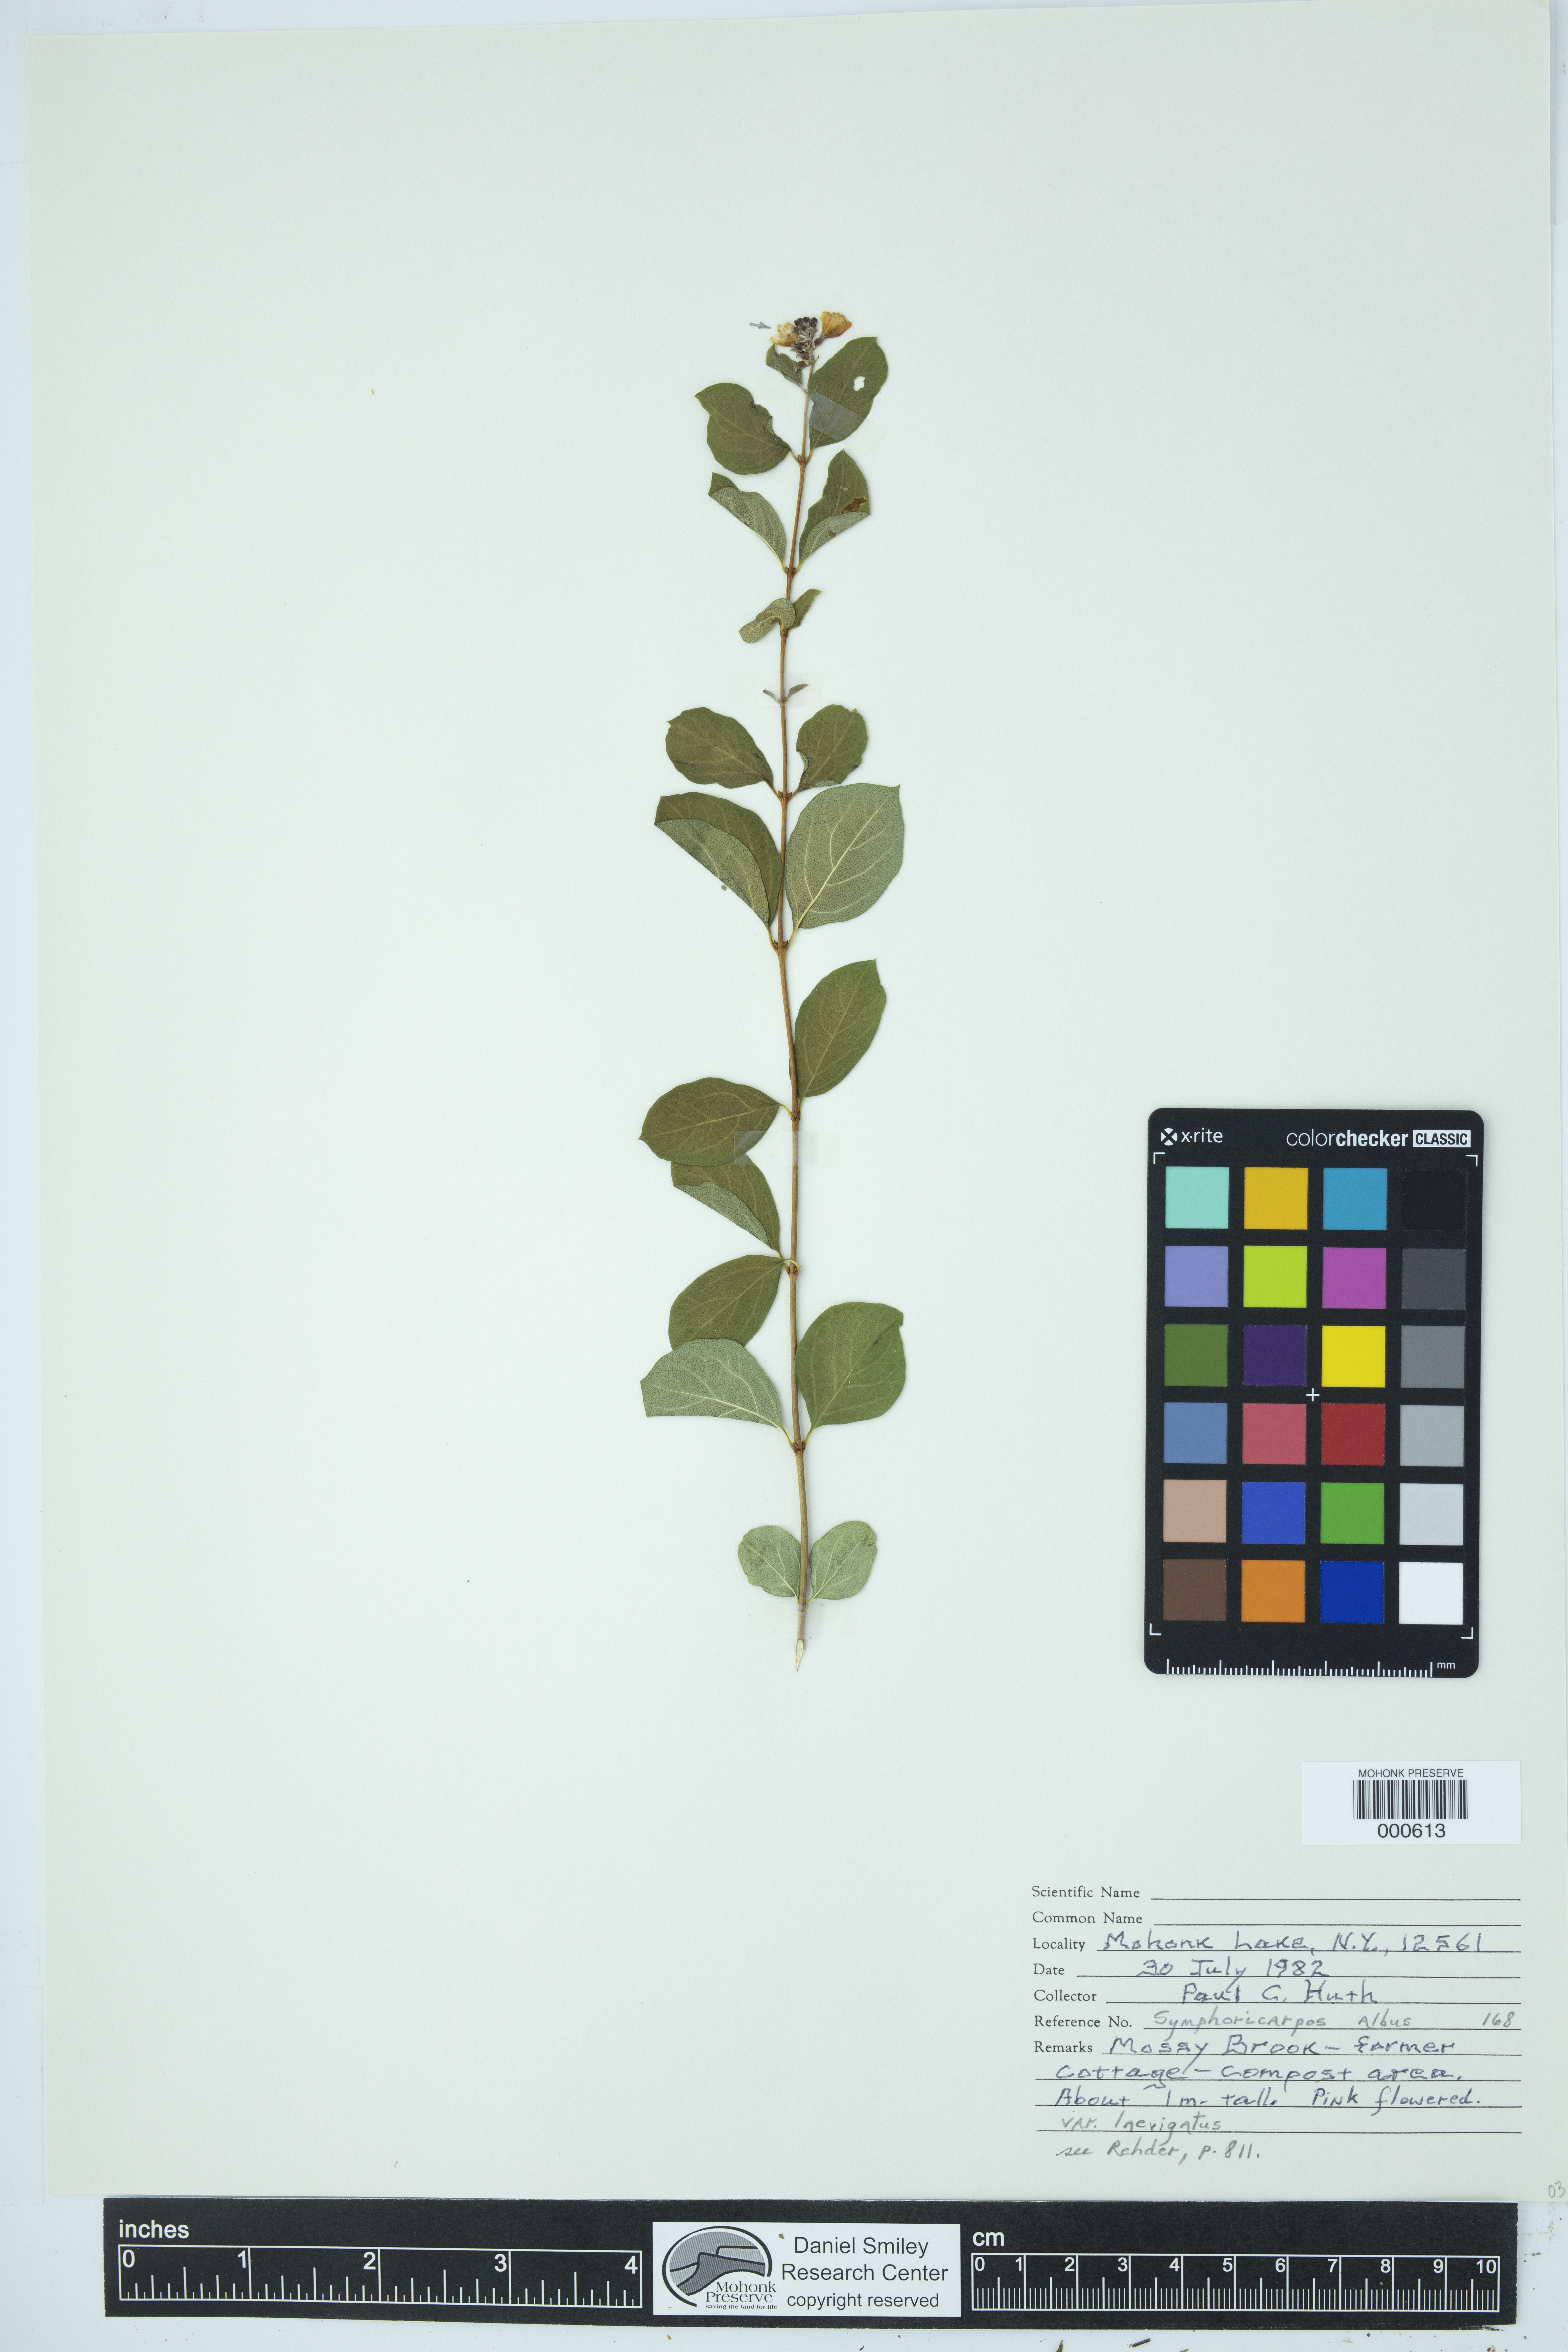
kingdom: Plantae
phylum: Tracheophyta
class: Magnoliopsida
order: Dipsacales
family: Caprifoliaceae
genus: Symphoricarpos
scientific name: Symphoricarpos albus
